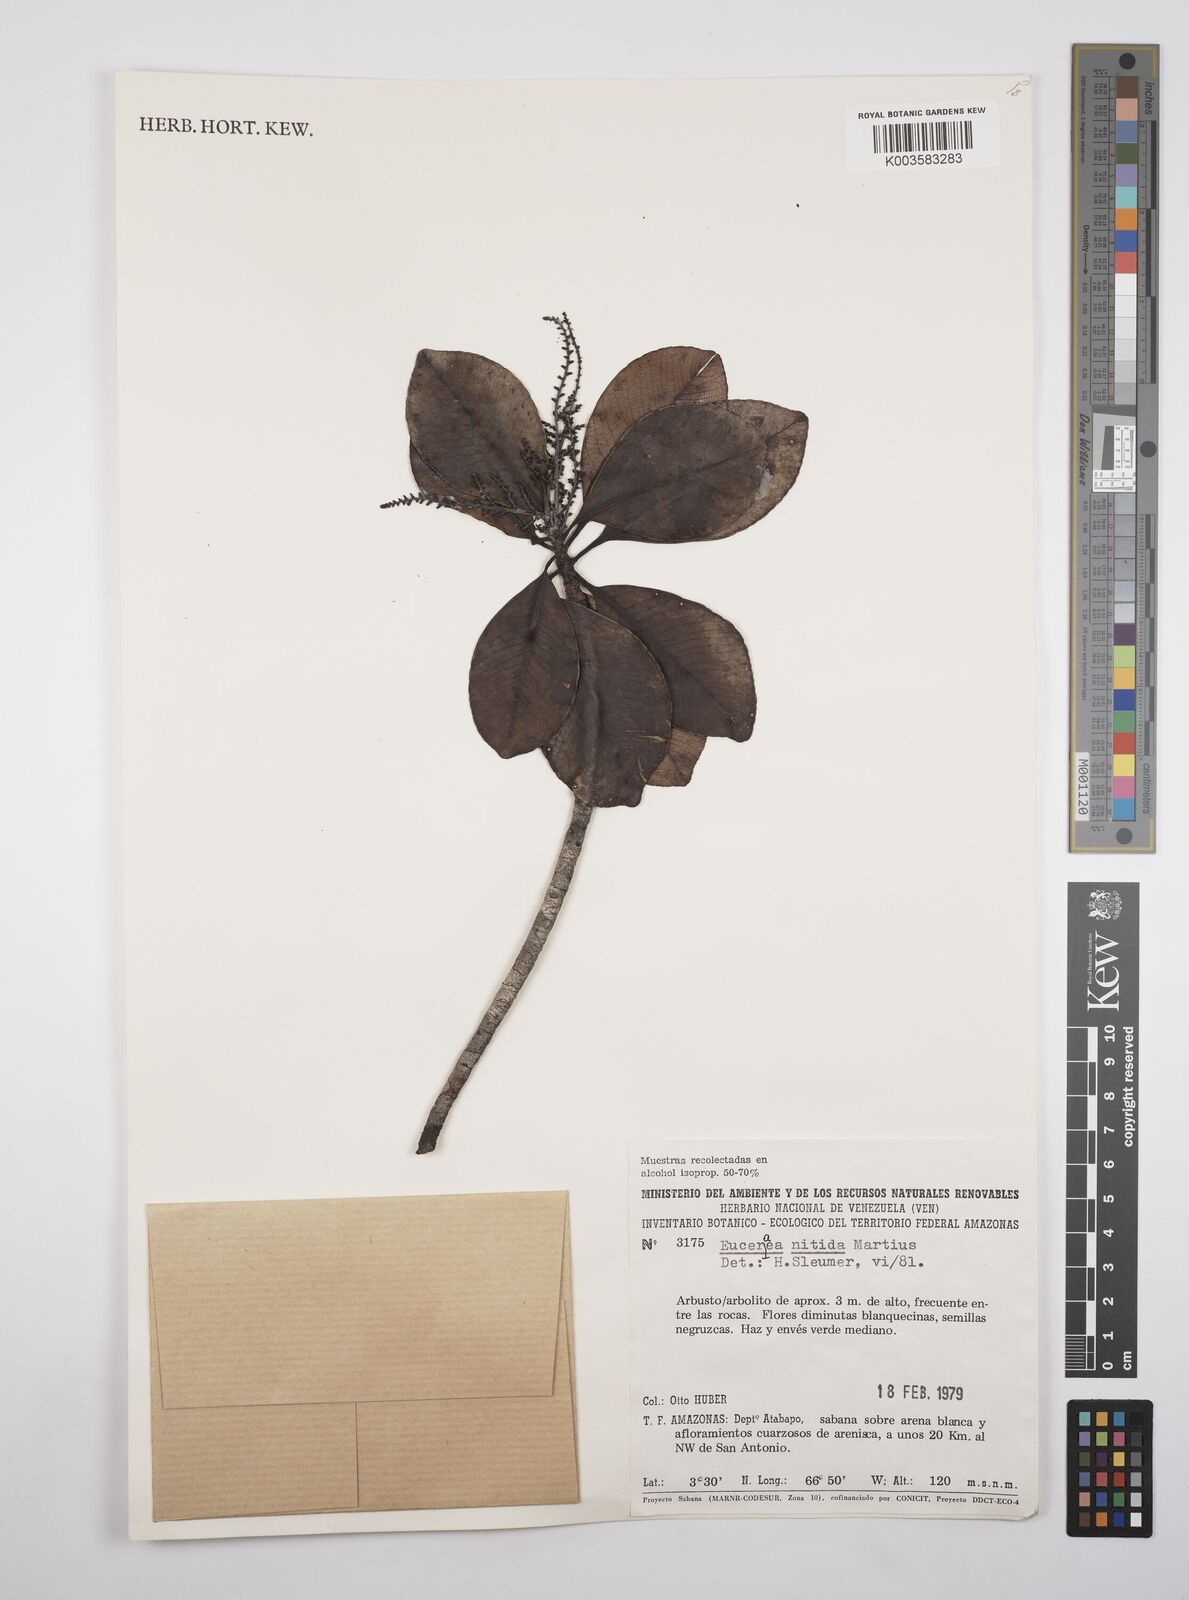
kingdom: Plantae
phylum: Tracheophyta
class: Magnoliopsida
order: Malpighiales
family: Salicaceae
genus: Casearia
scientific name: Casearia euceraea
